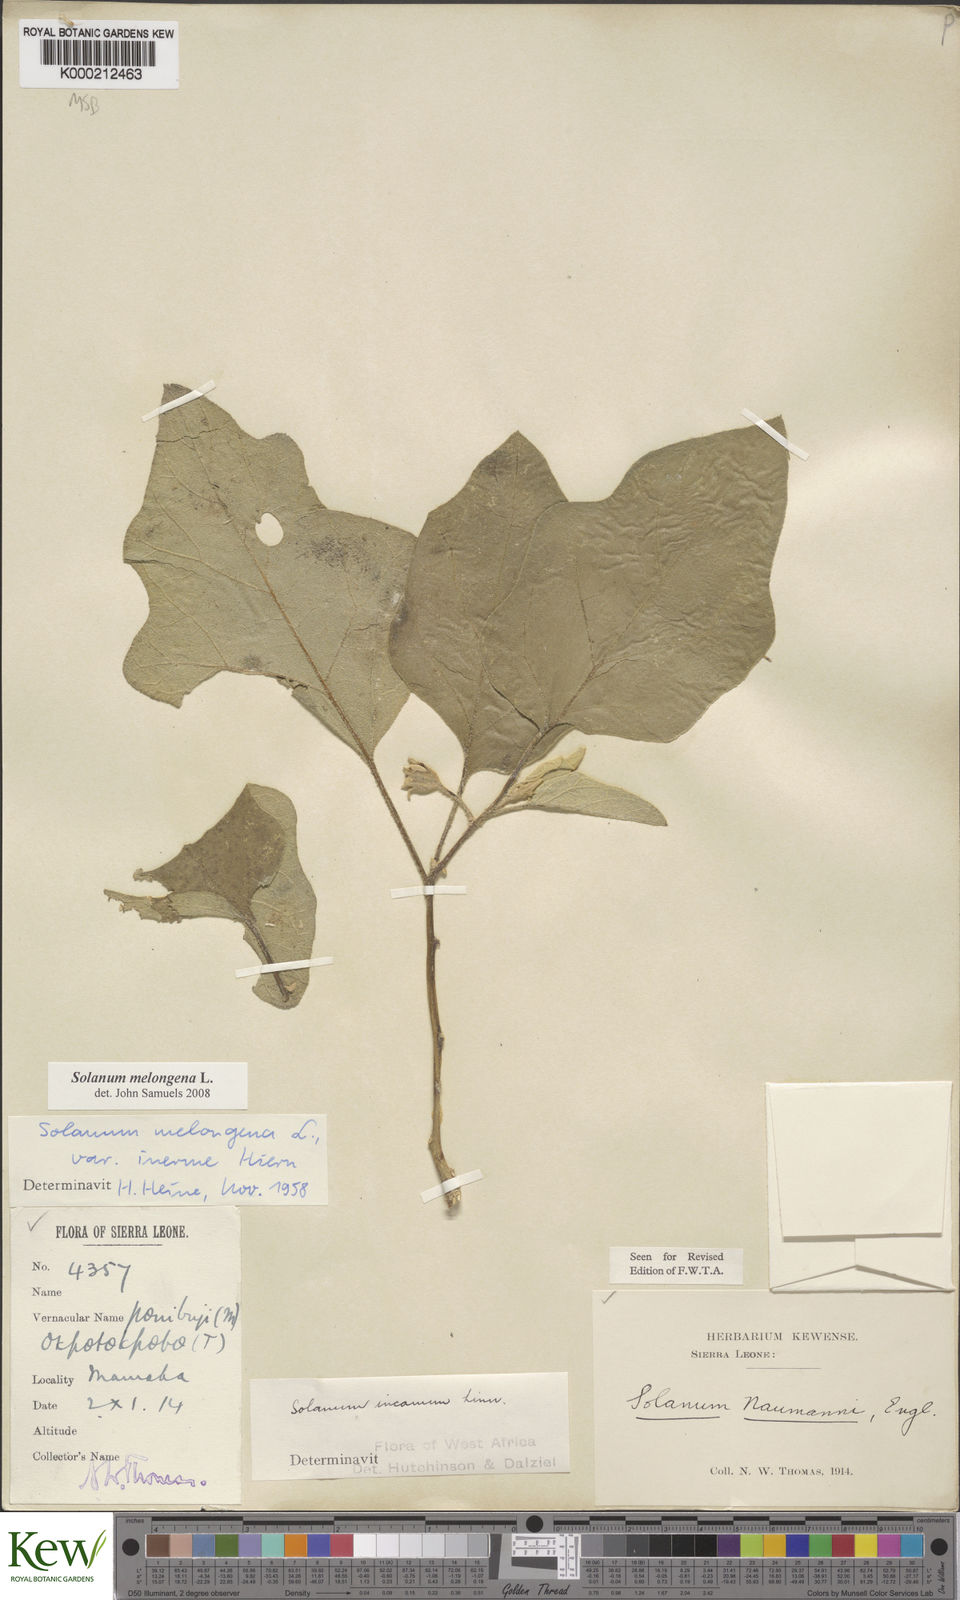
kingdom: Plantae
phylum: Tracheophyta
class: Magnoliopsida
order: Solanales
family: Solanaceae
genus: Solanum
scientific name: Solanum
